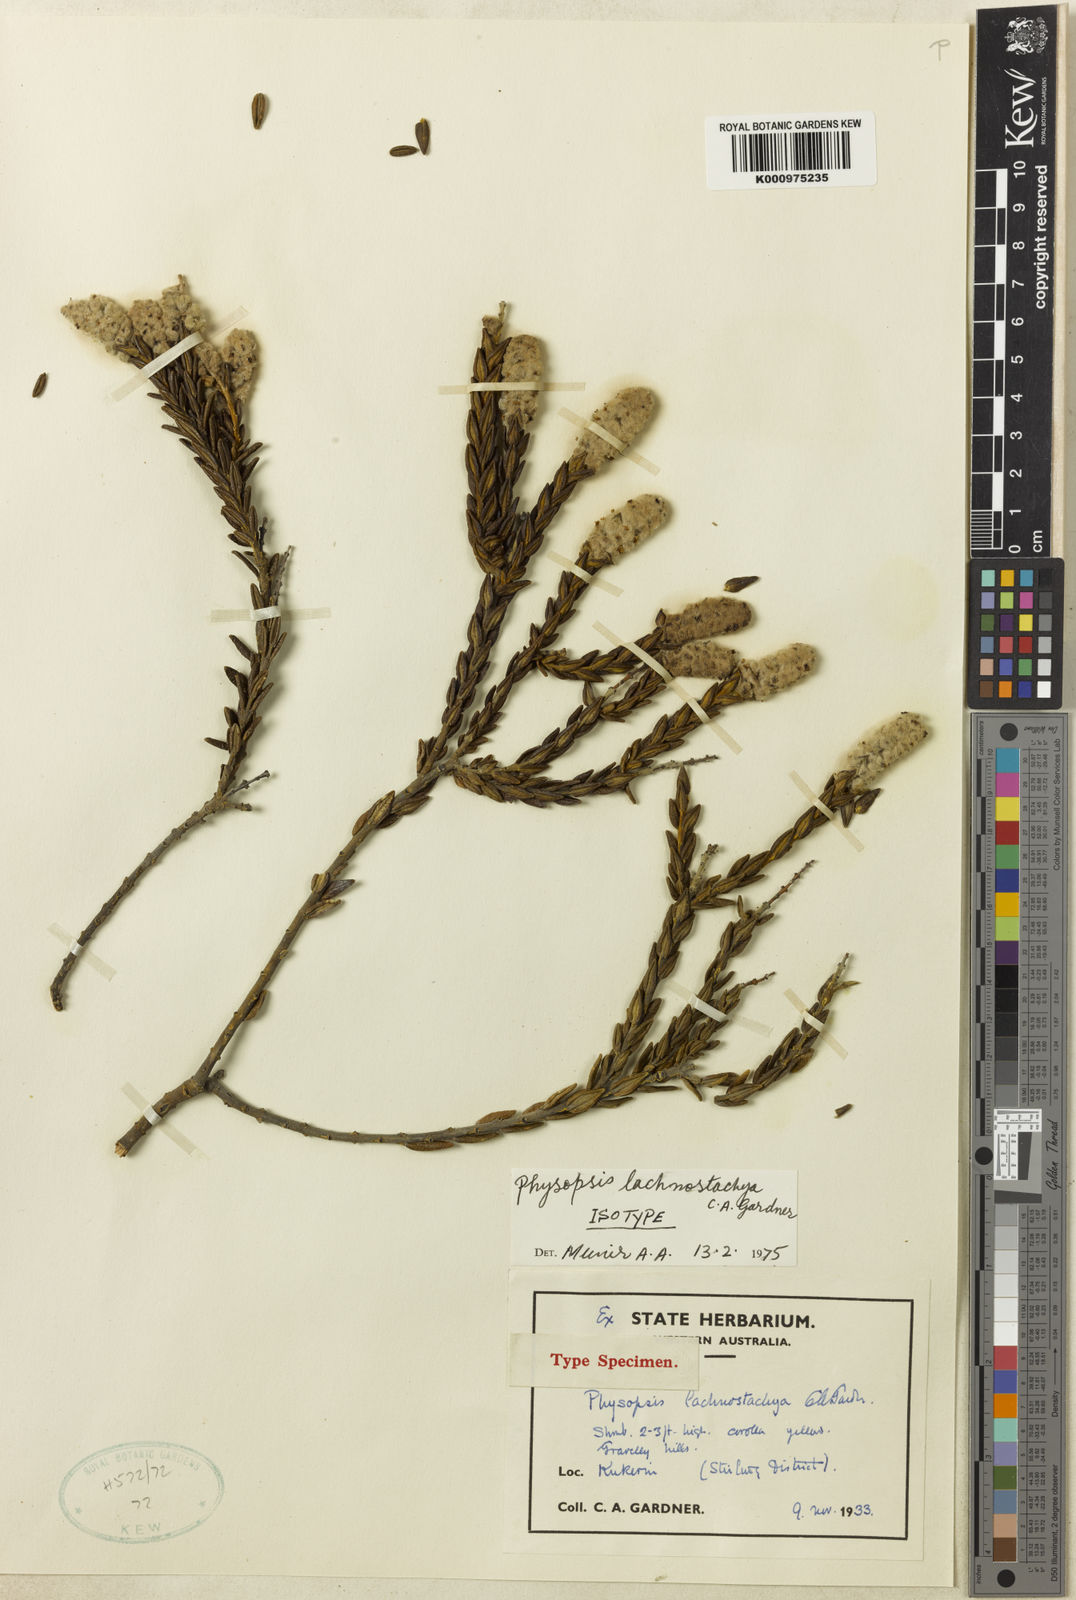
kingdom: Plantae
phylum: Tracheophyta
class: Magnoliopsida
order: Lamiales
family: Lamiaceae
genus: Apatelantha
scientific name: Apatelantha lachnostachya
